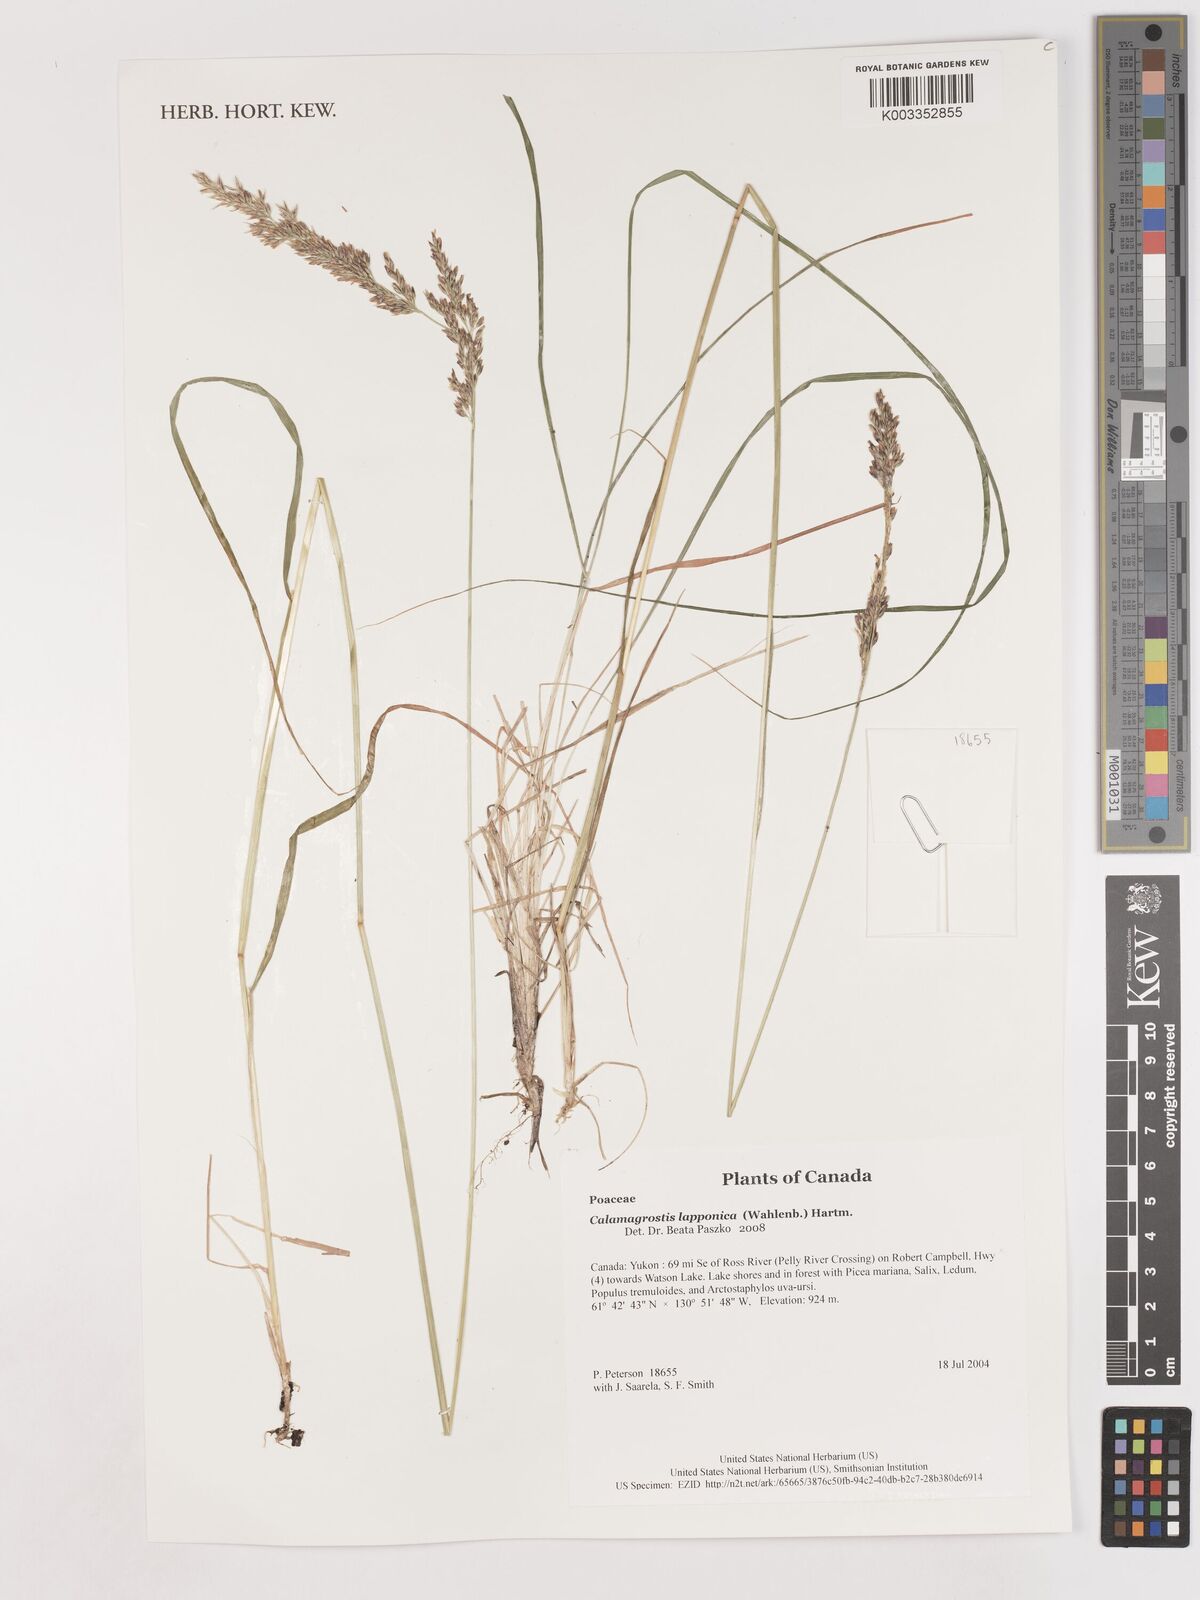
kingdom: Plantae
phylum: Tracheophyta
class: Liliopsida
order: Poales
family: Poaceae
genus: Calamagrostis
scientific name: Calamagrostis lapponica
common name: Lapland reedgrass
